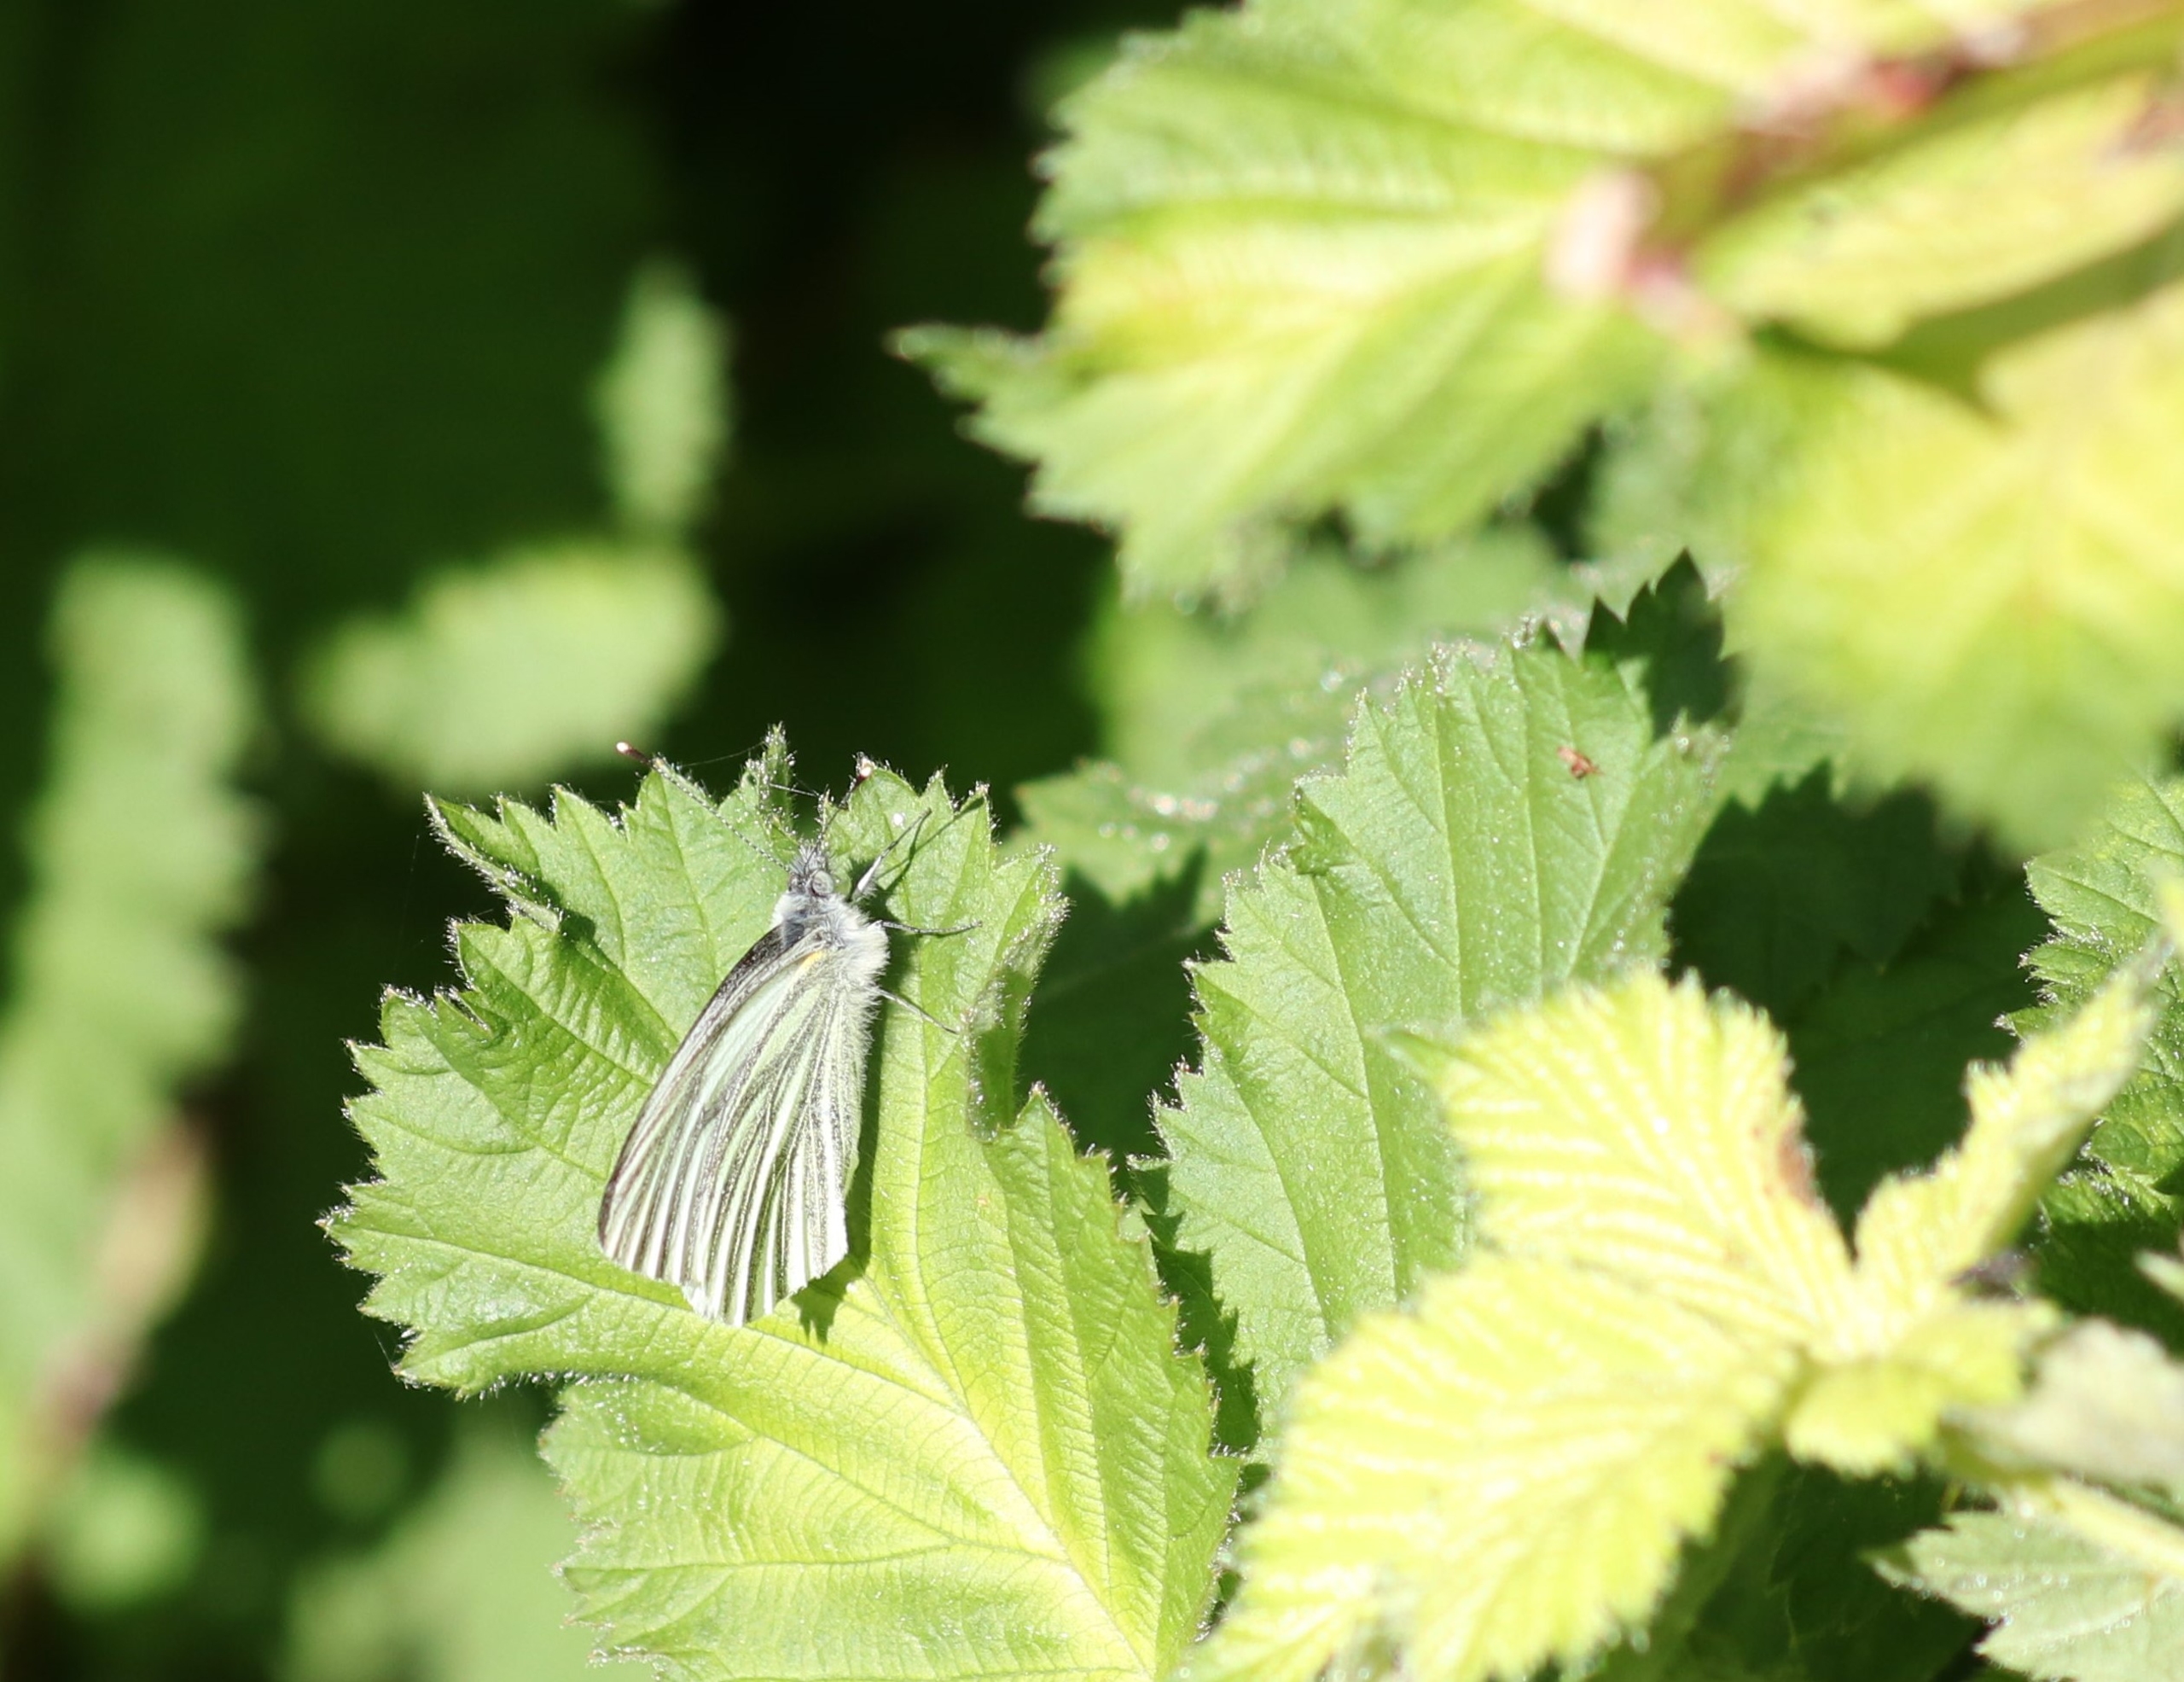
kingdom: Animalia
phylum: Arthropoda
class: Insecta
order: Lepidoptera
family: Pieridae
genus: Pieris
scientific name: Pieris napi
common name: Grønåret kålsommerfugl
